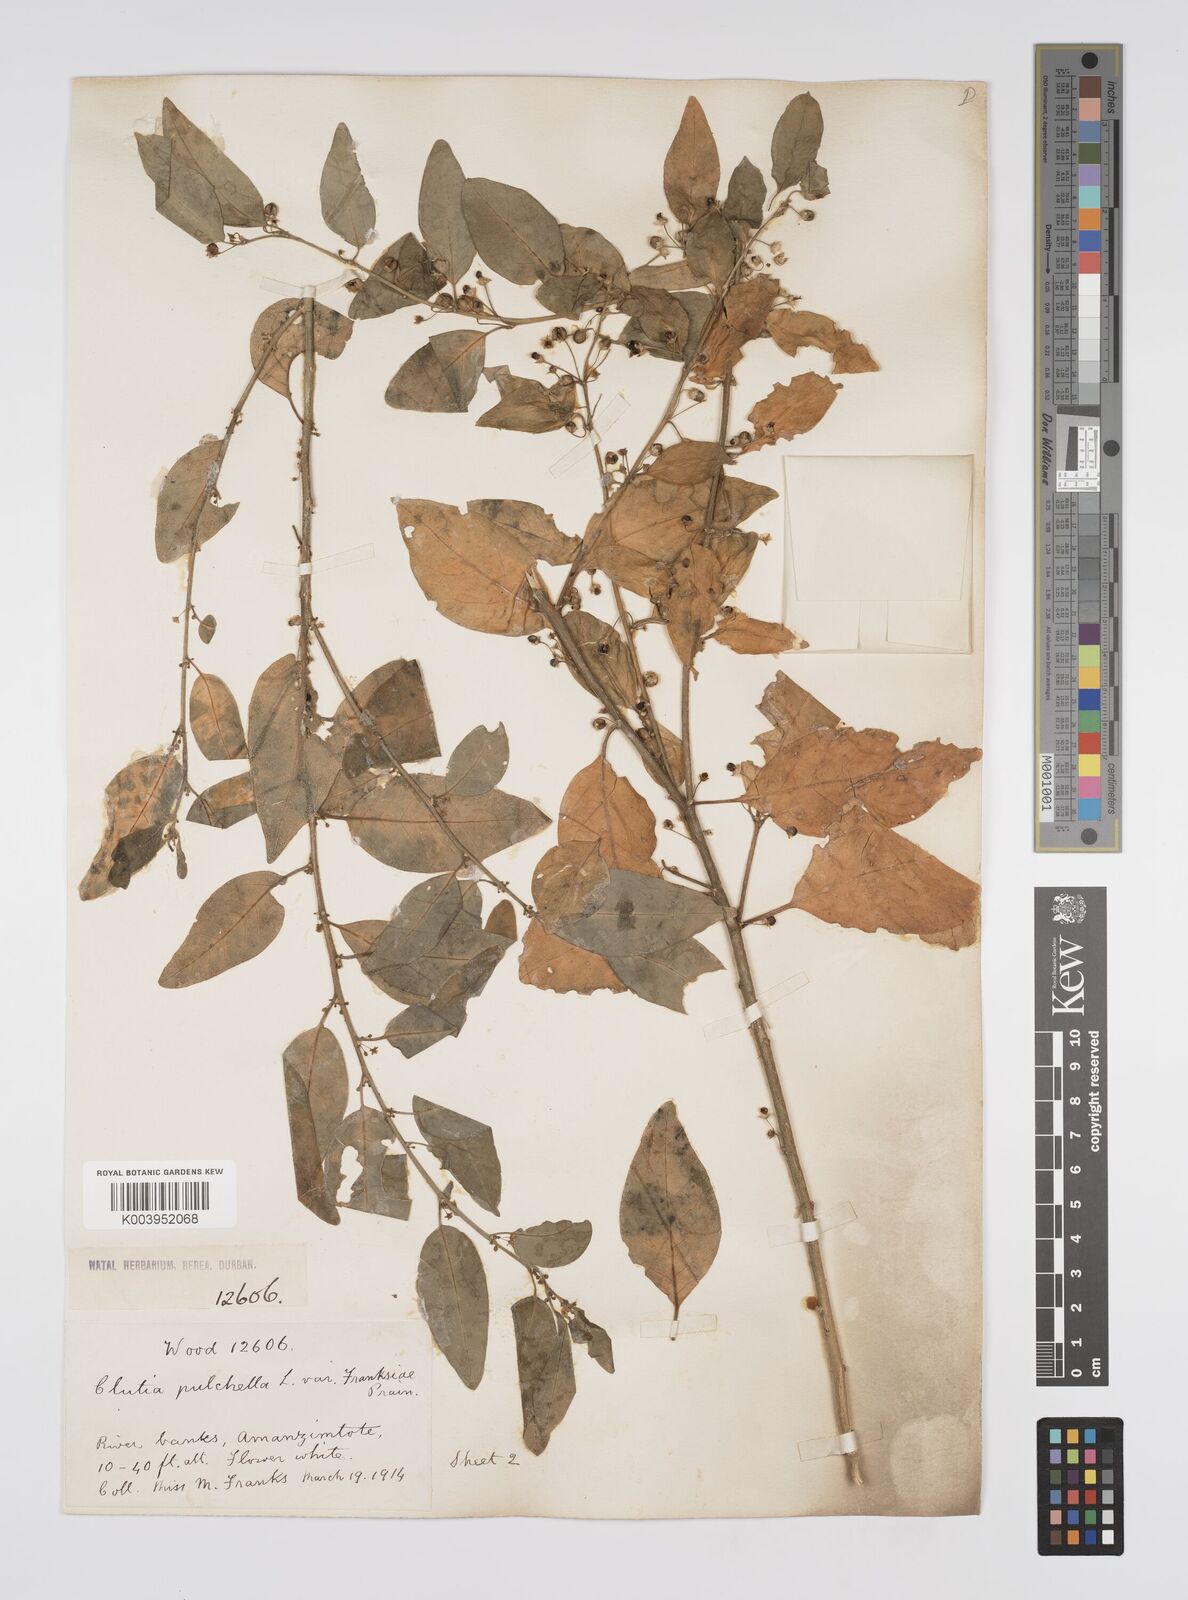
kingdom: Plantae
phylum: Tracheophyta
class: Magnoliopsida
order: Malpighiales
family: Peraceae
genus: Clutia
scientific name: Clutia pulchella
